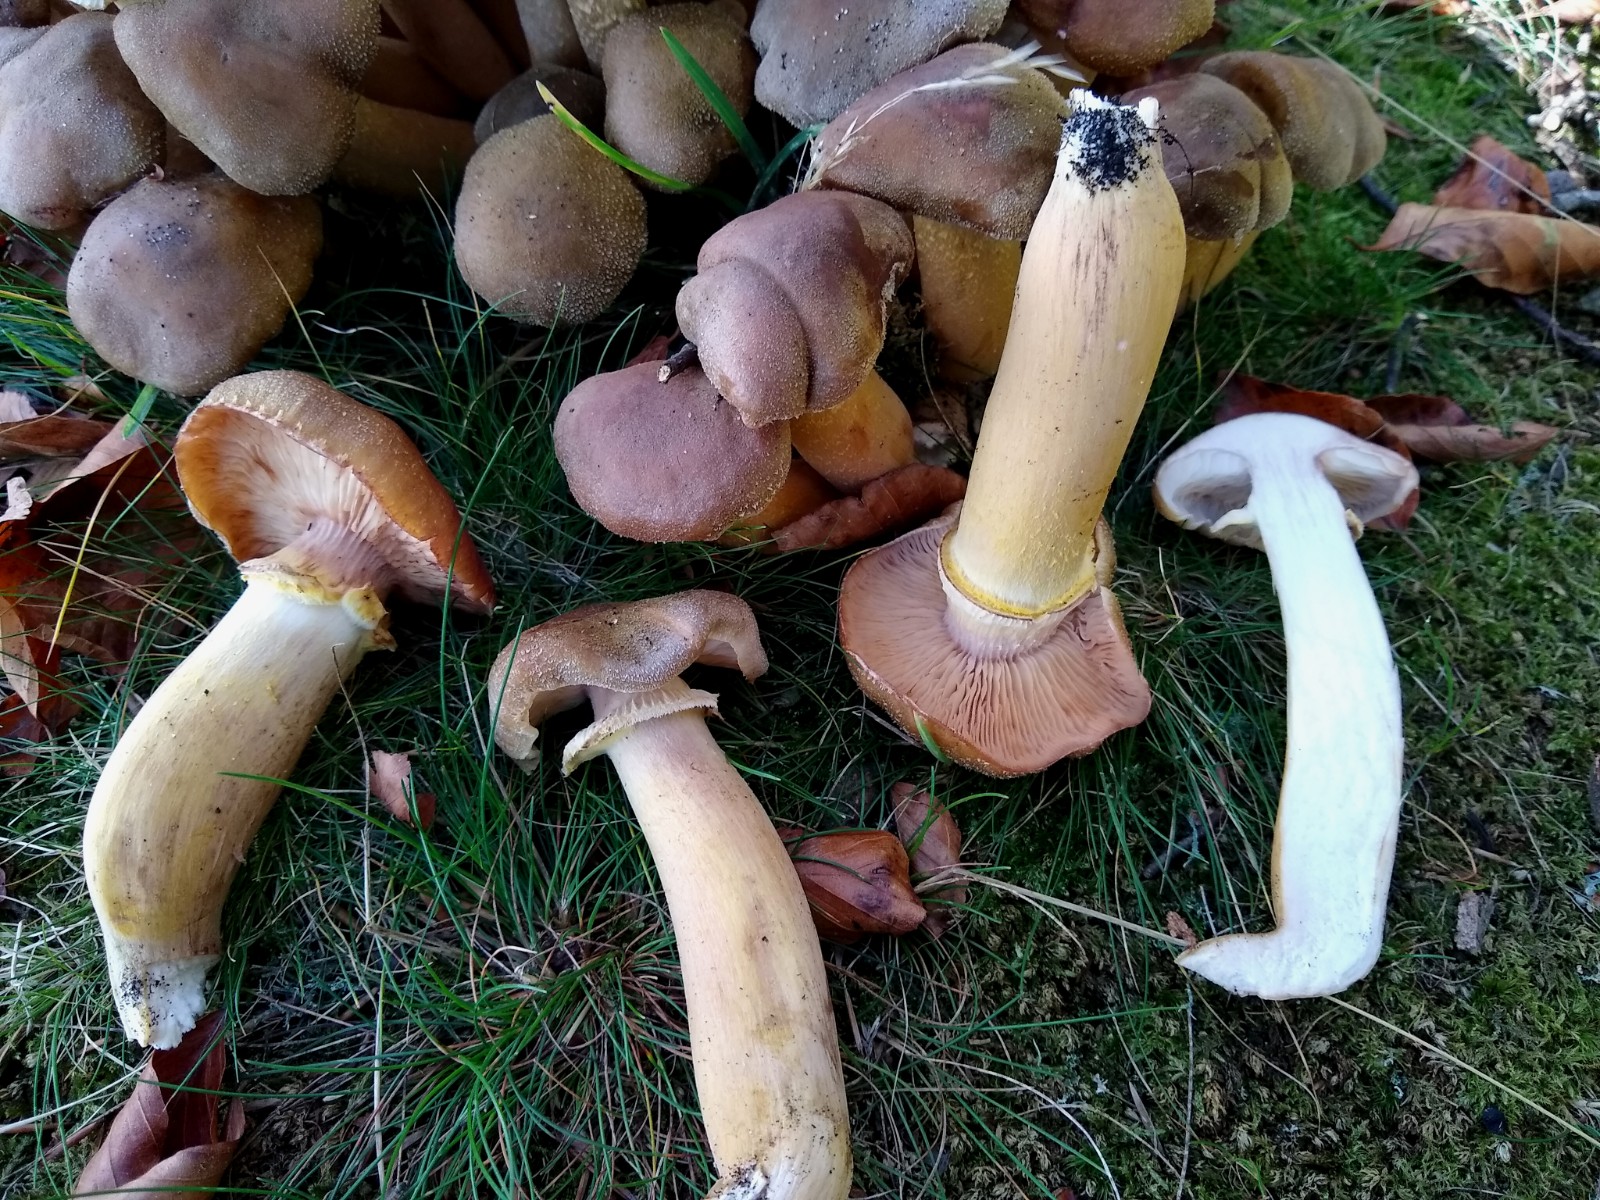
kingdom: Fungi
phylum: Basidiomycota
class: Agaricomycetes
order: Agaricales
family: Physalacriaceae
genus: Armillaria
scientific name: Armillaria lutea
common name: køllestokket honningsvamp
